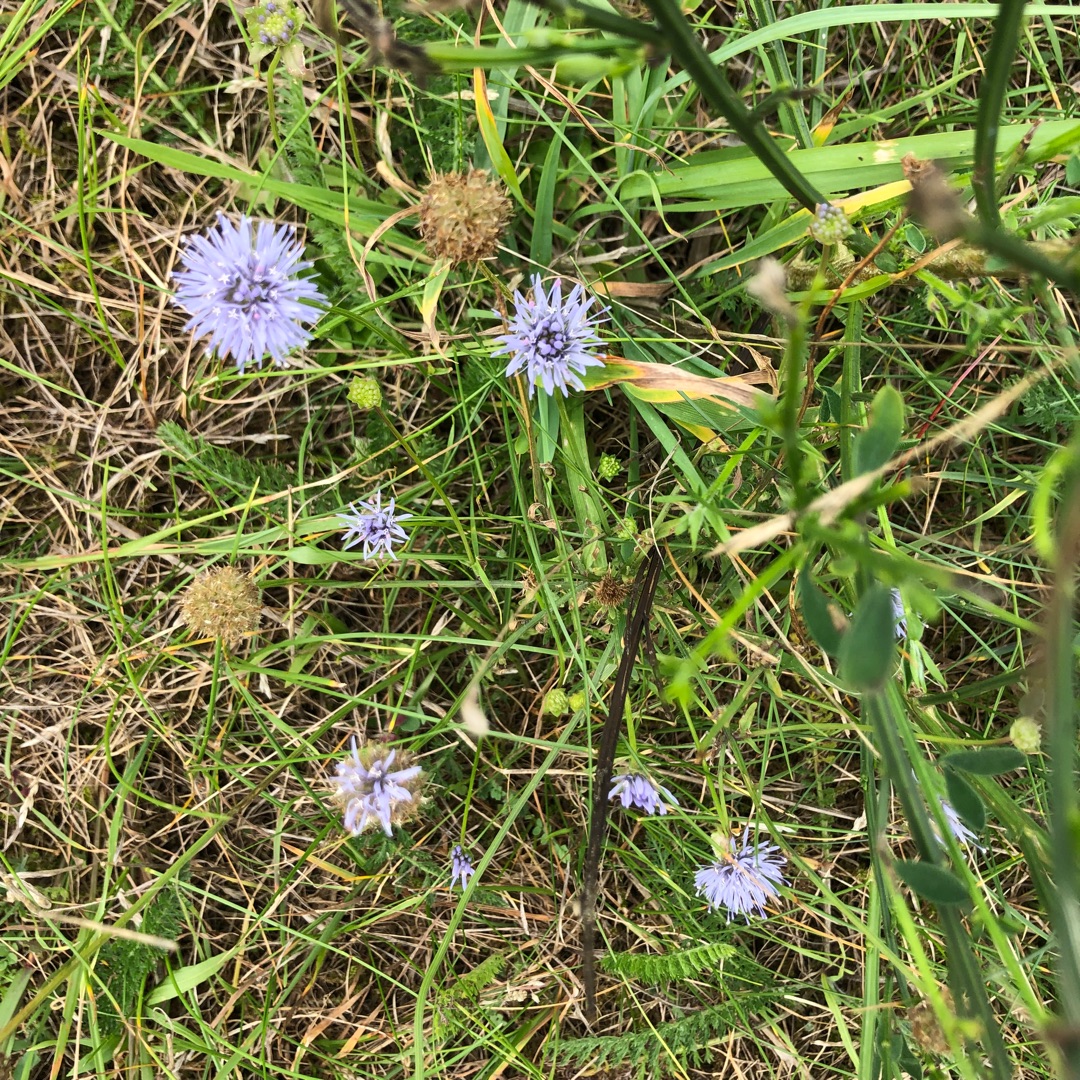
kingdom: Plantae
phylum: Tracheophyta
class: Magnoliopsida
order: Asterales
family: Campanulaceae
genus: Jasione
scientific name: Jasione montana
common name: Blåmunke
